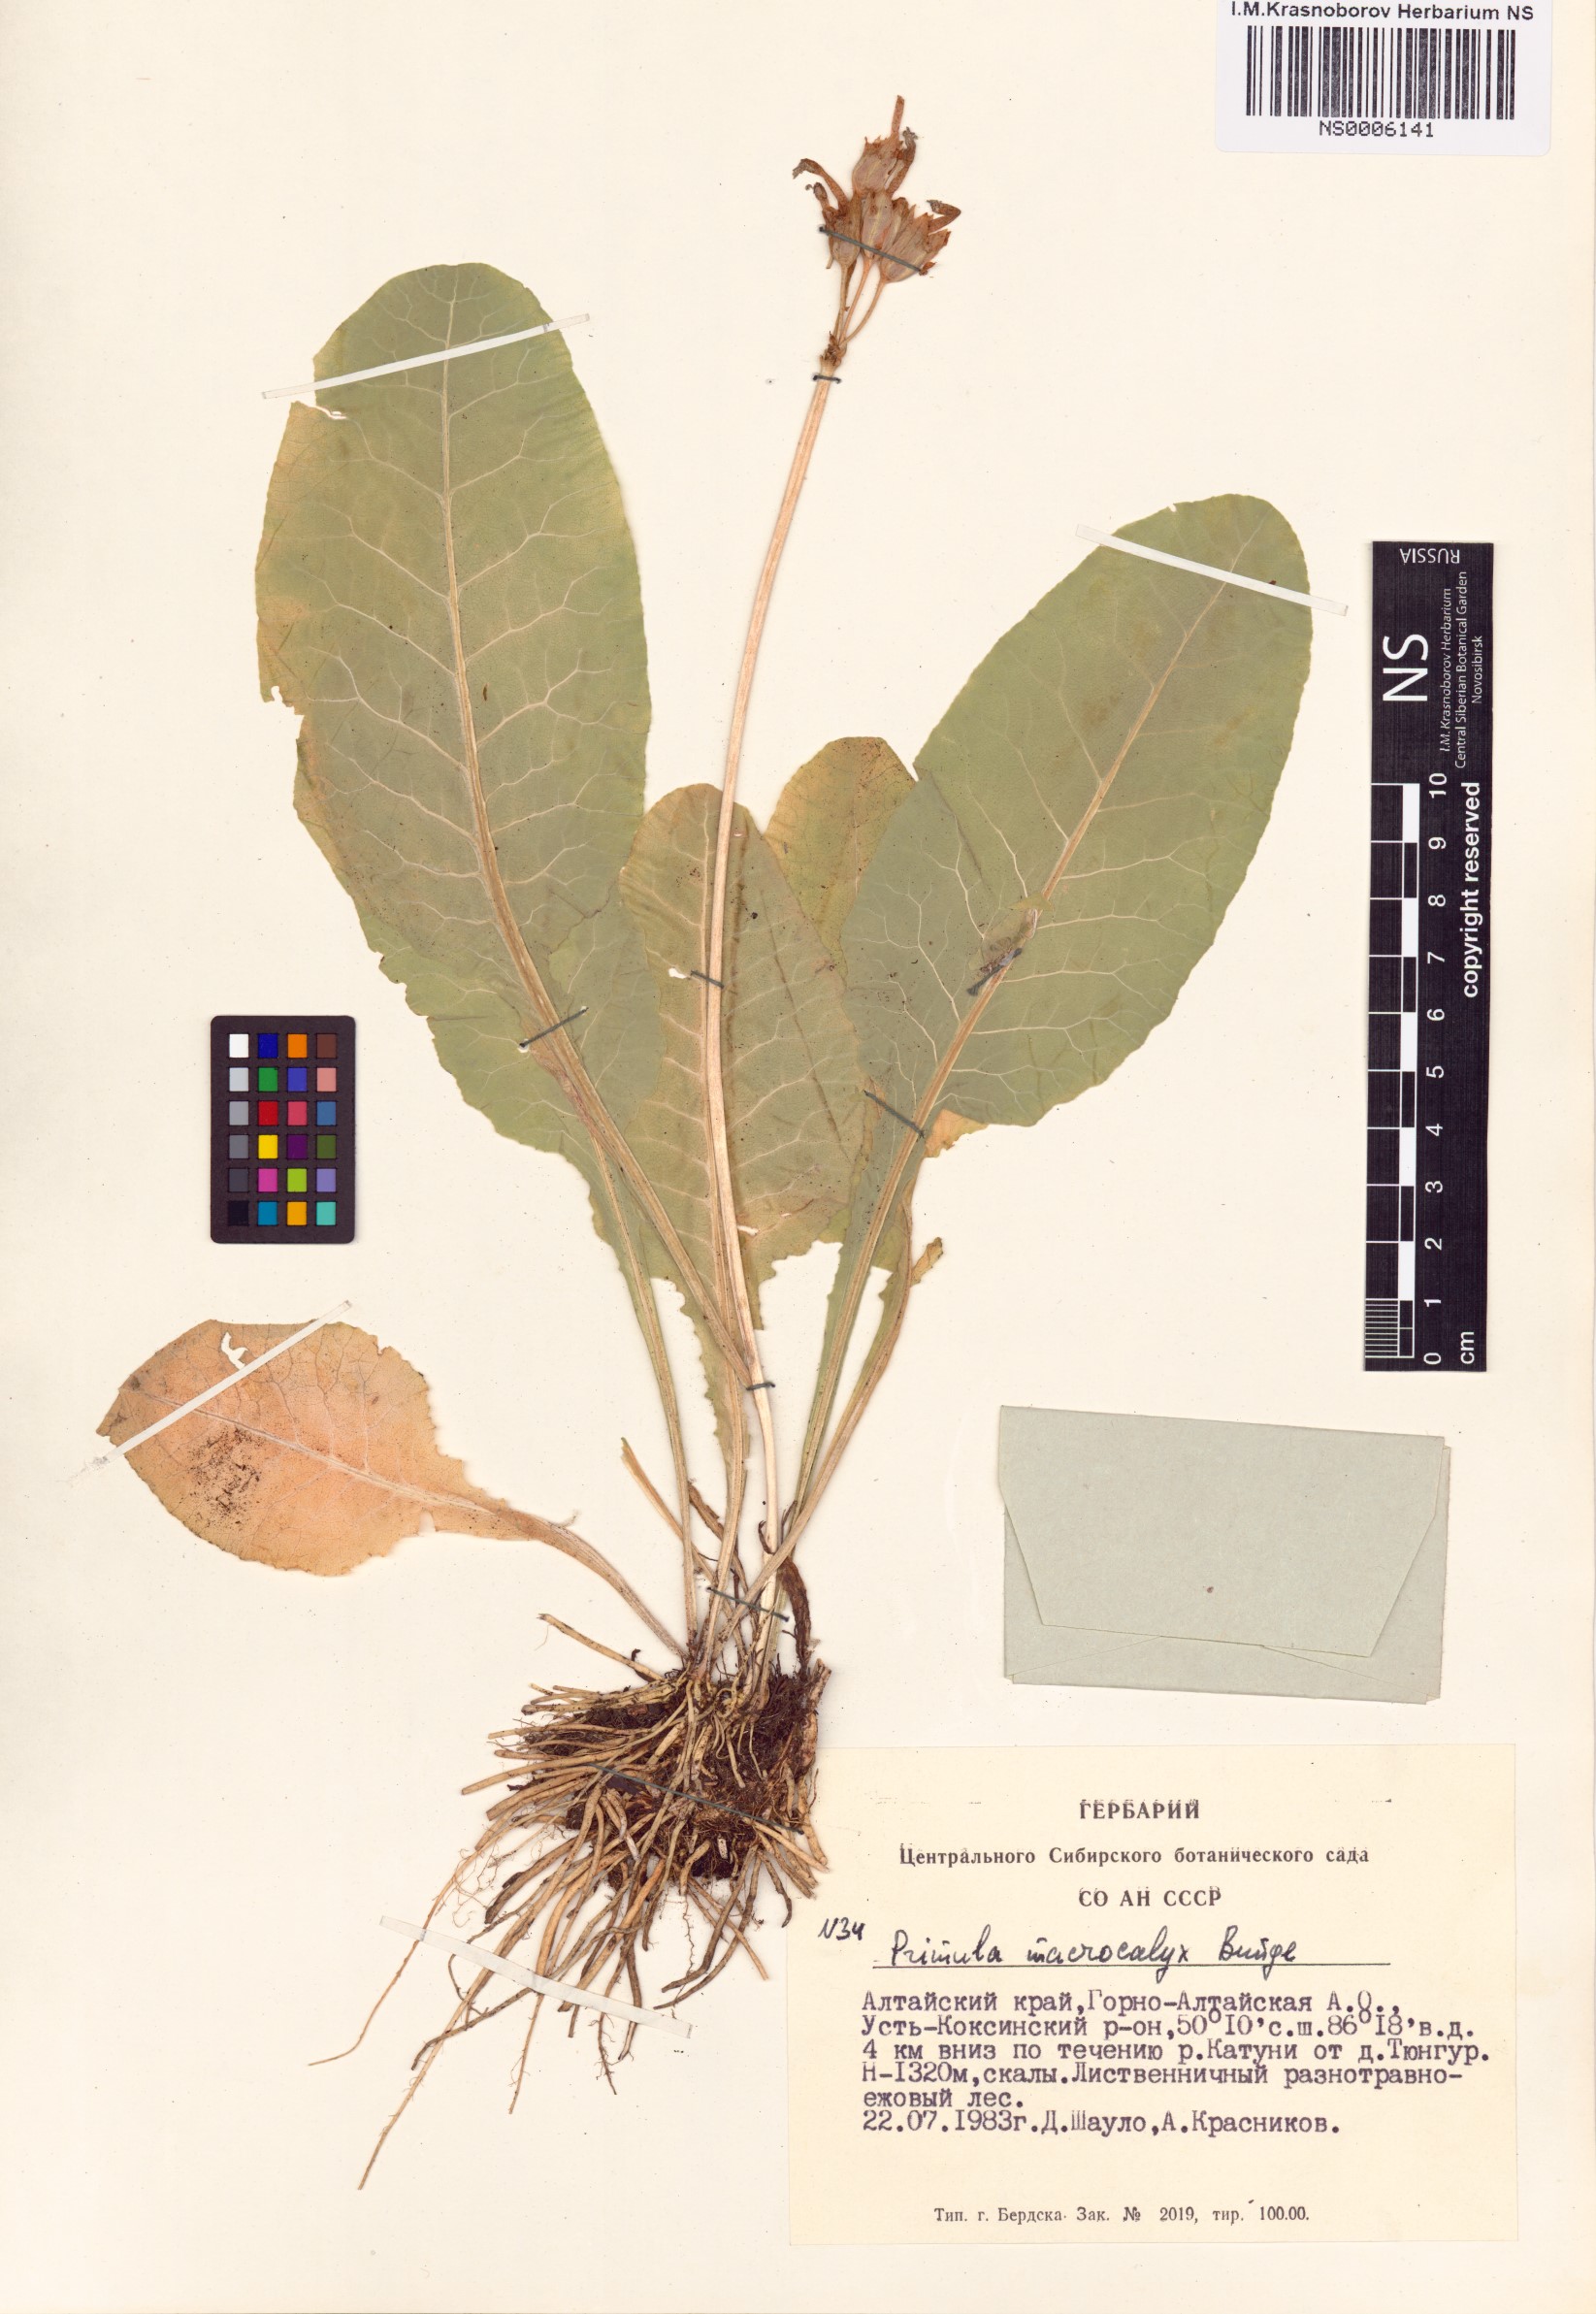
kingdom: Plantae
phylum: Tracheophyta
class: Magnoliopsida
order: Ericales
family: Primulaceae
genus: Primula
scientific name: Primula veris
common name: Cowslip
